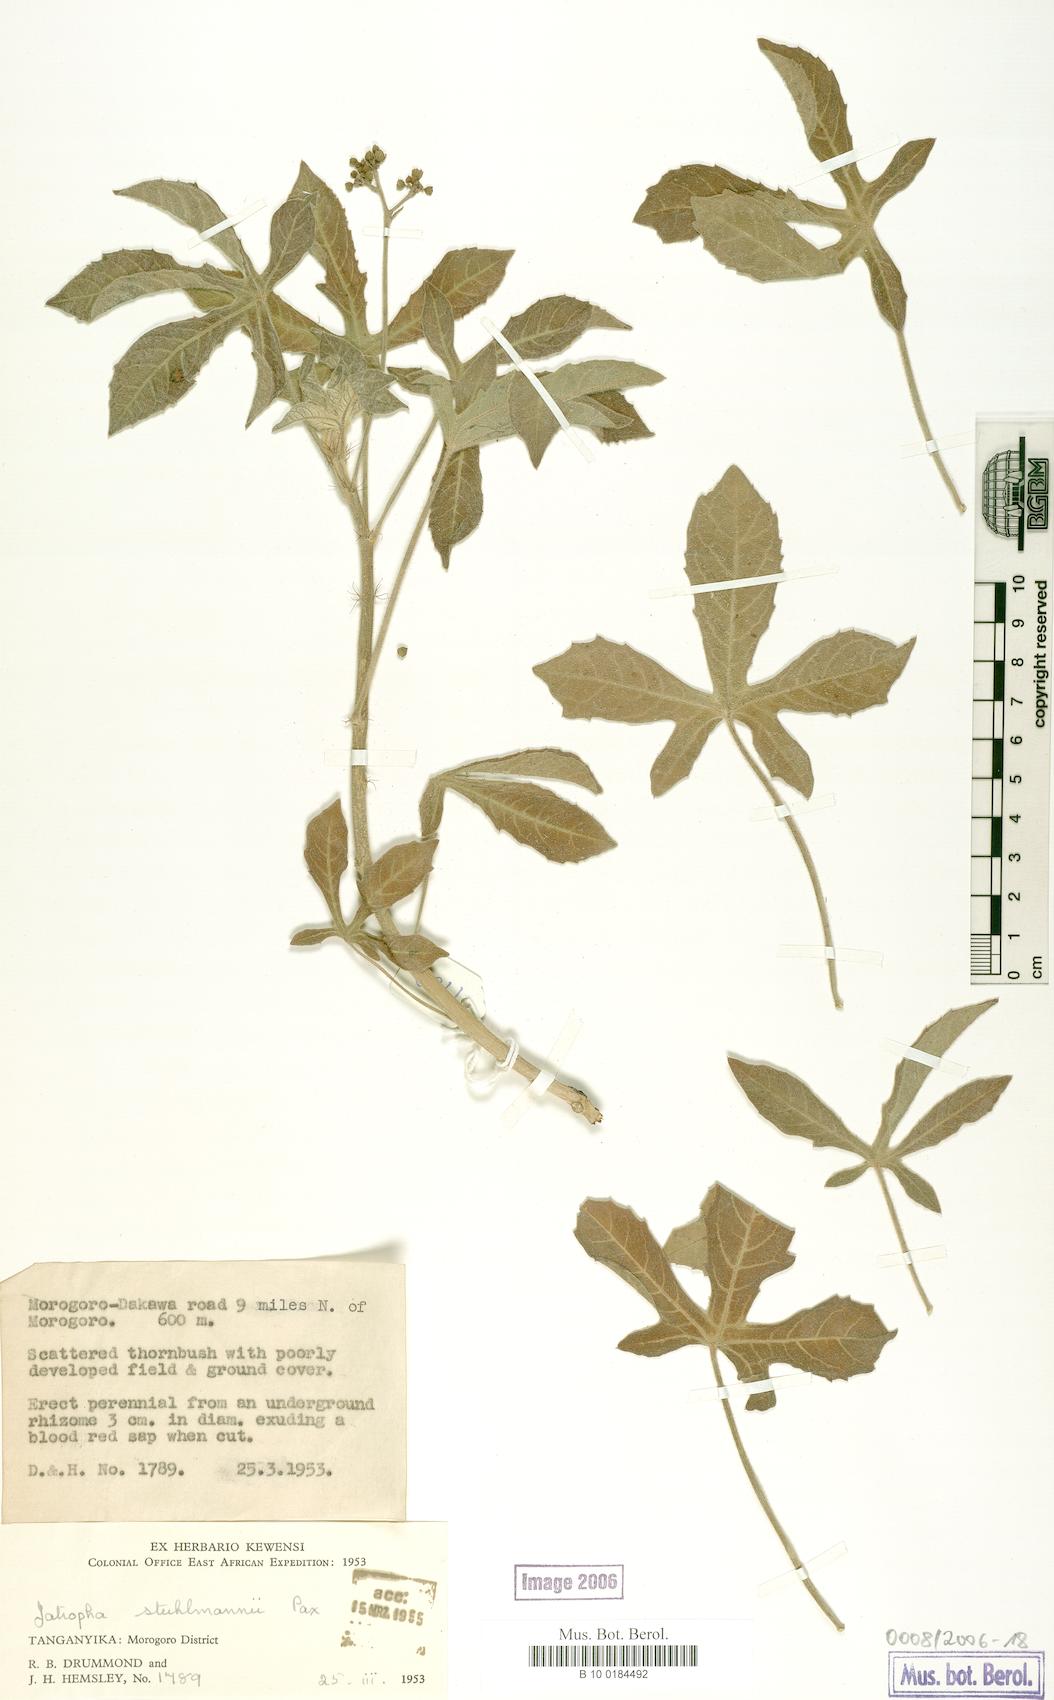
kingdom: Plantae
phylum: Tracheophyta
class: Magnoliopsida
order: Malpighiales
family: Euphorbiaceae
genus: Jatropha
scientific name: Jatropha stuhlmannii
